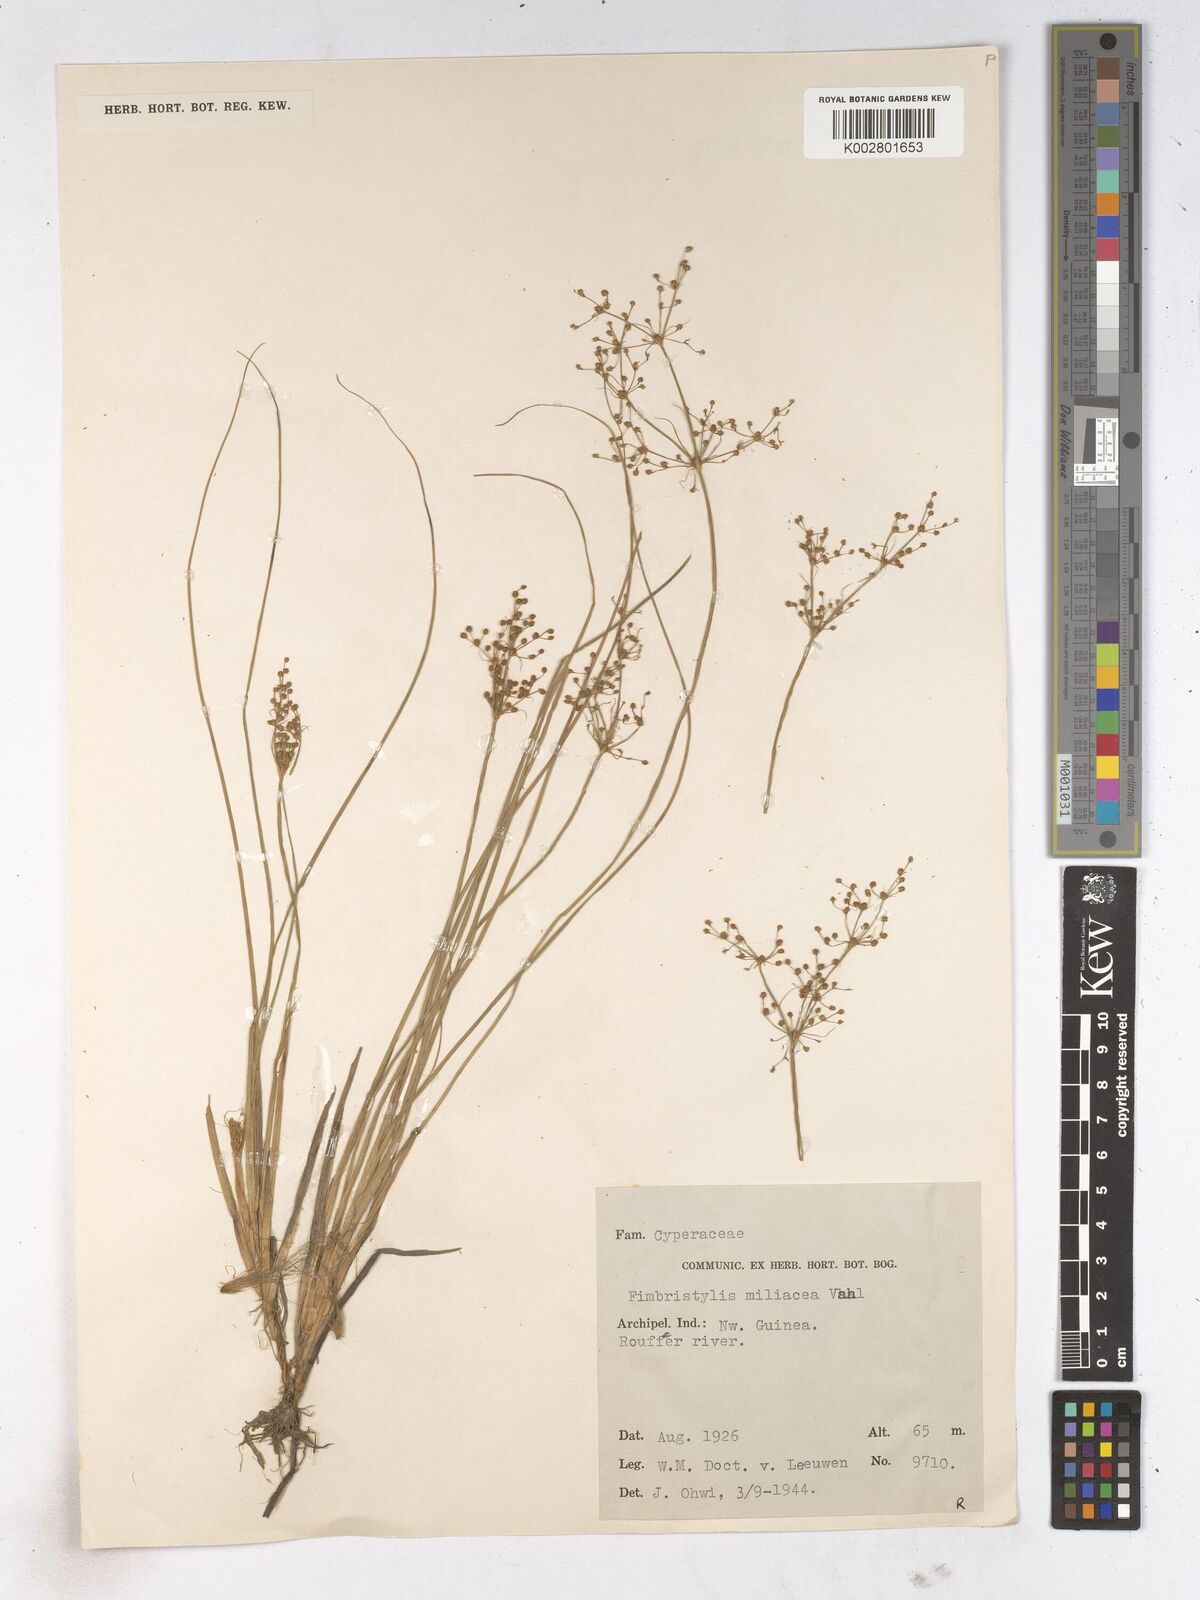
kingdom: Plantae
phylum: Tracheophyta
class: Liliopsida
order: Poales
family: Cyperaceae
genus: Fimbristylis
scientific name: Fimbristylis littoralis
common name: Fimbry
